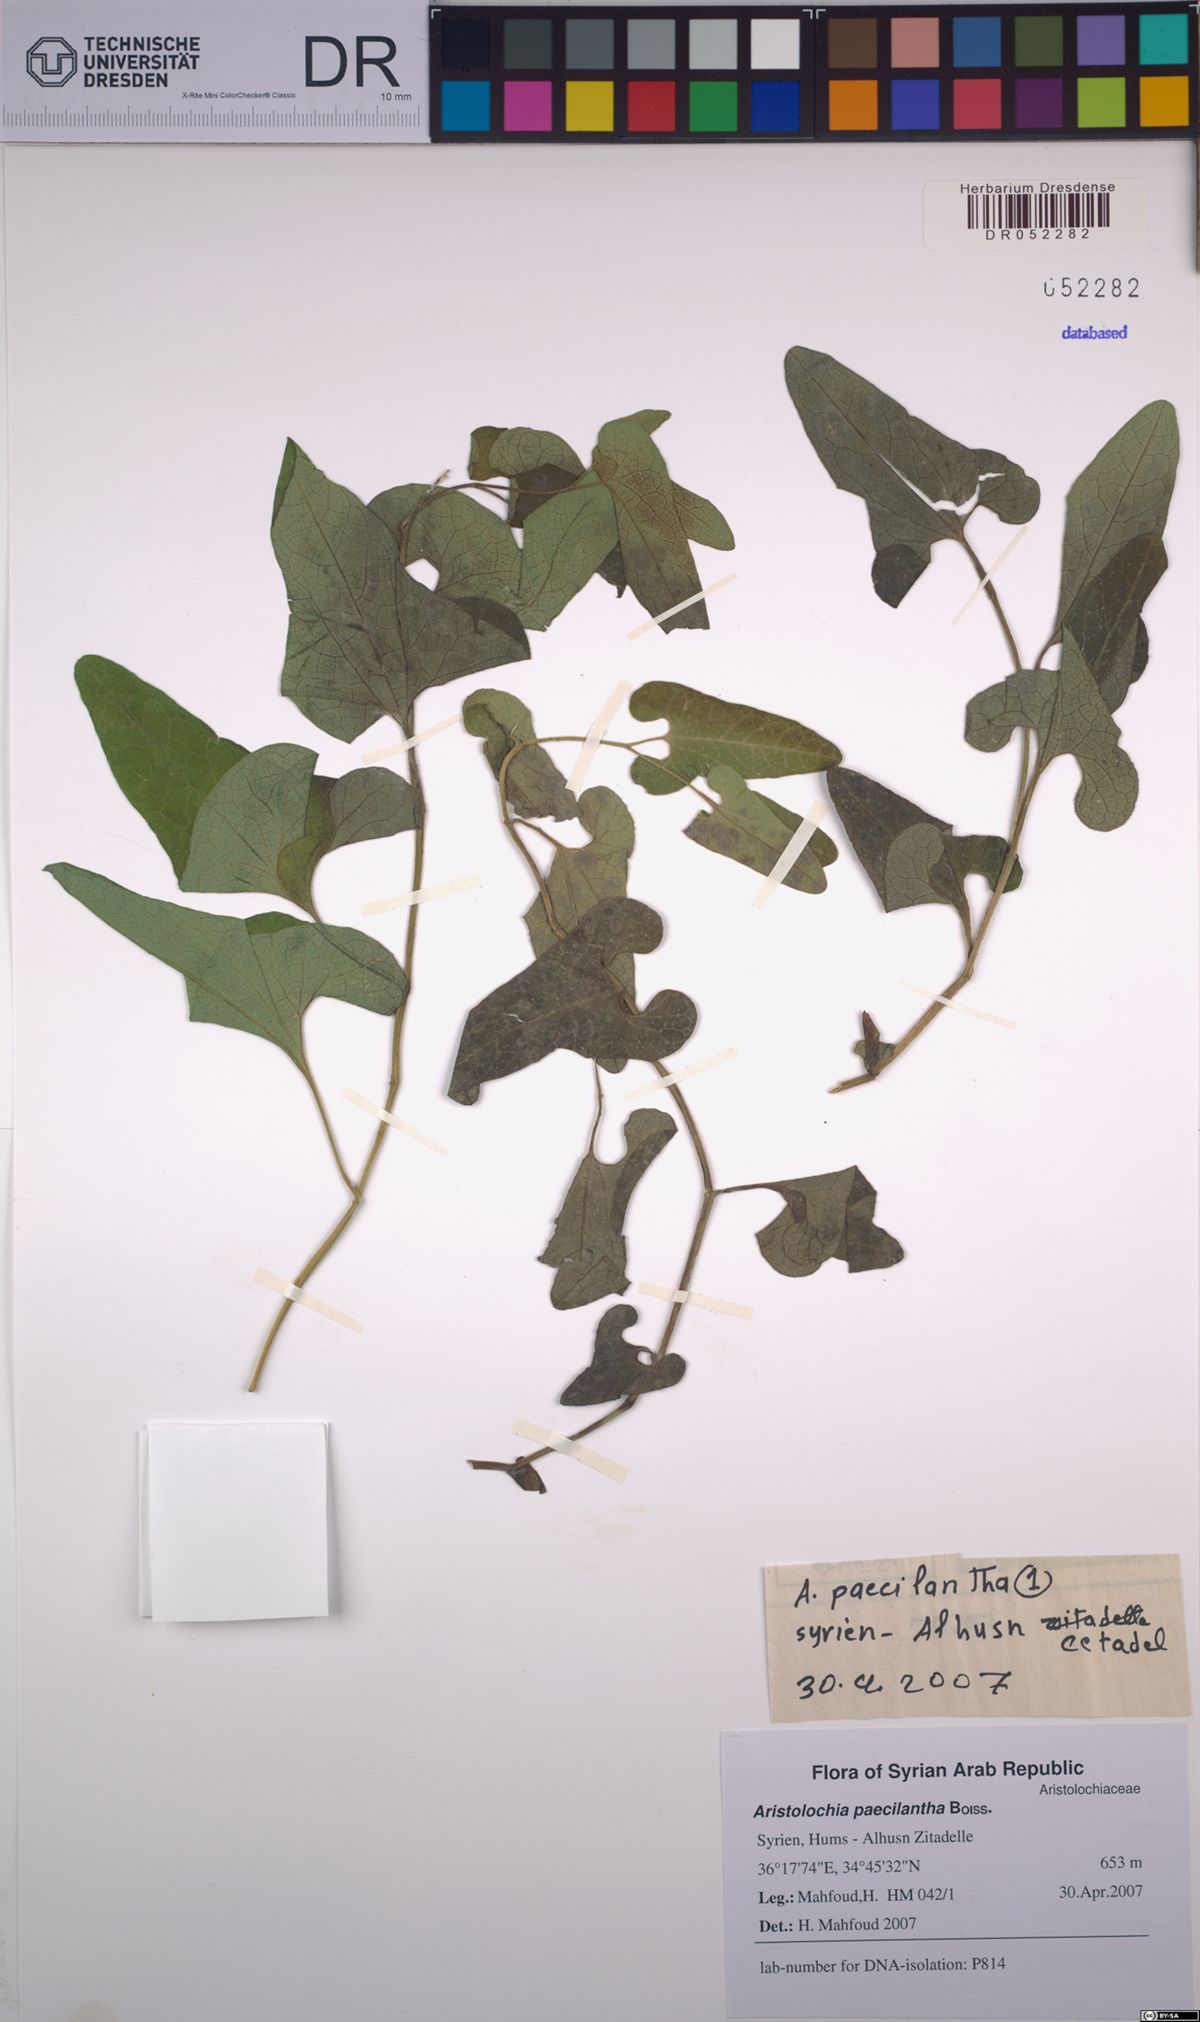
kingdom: Plantae
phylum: Tracheophyta
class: Magnoliopsida
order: Piperales
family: Aristolochiaceae
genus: Aristolochia
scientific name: Aristolochia paecilantha
